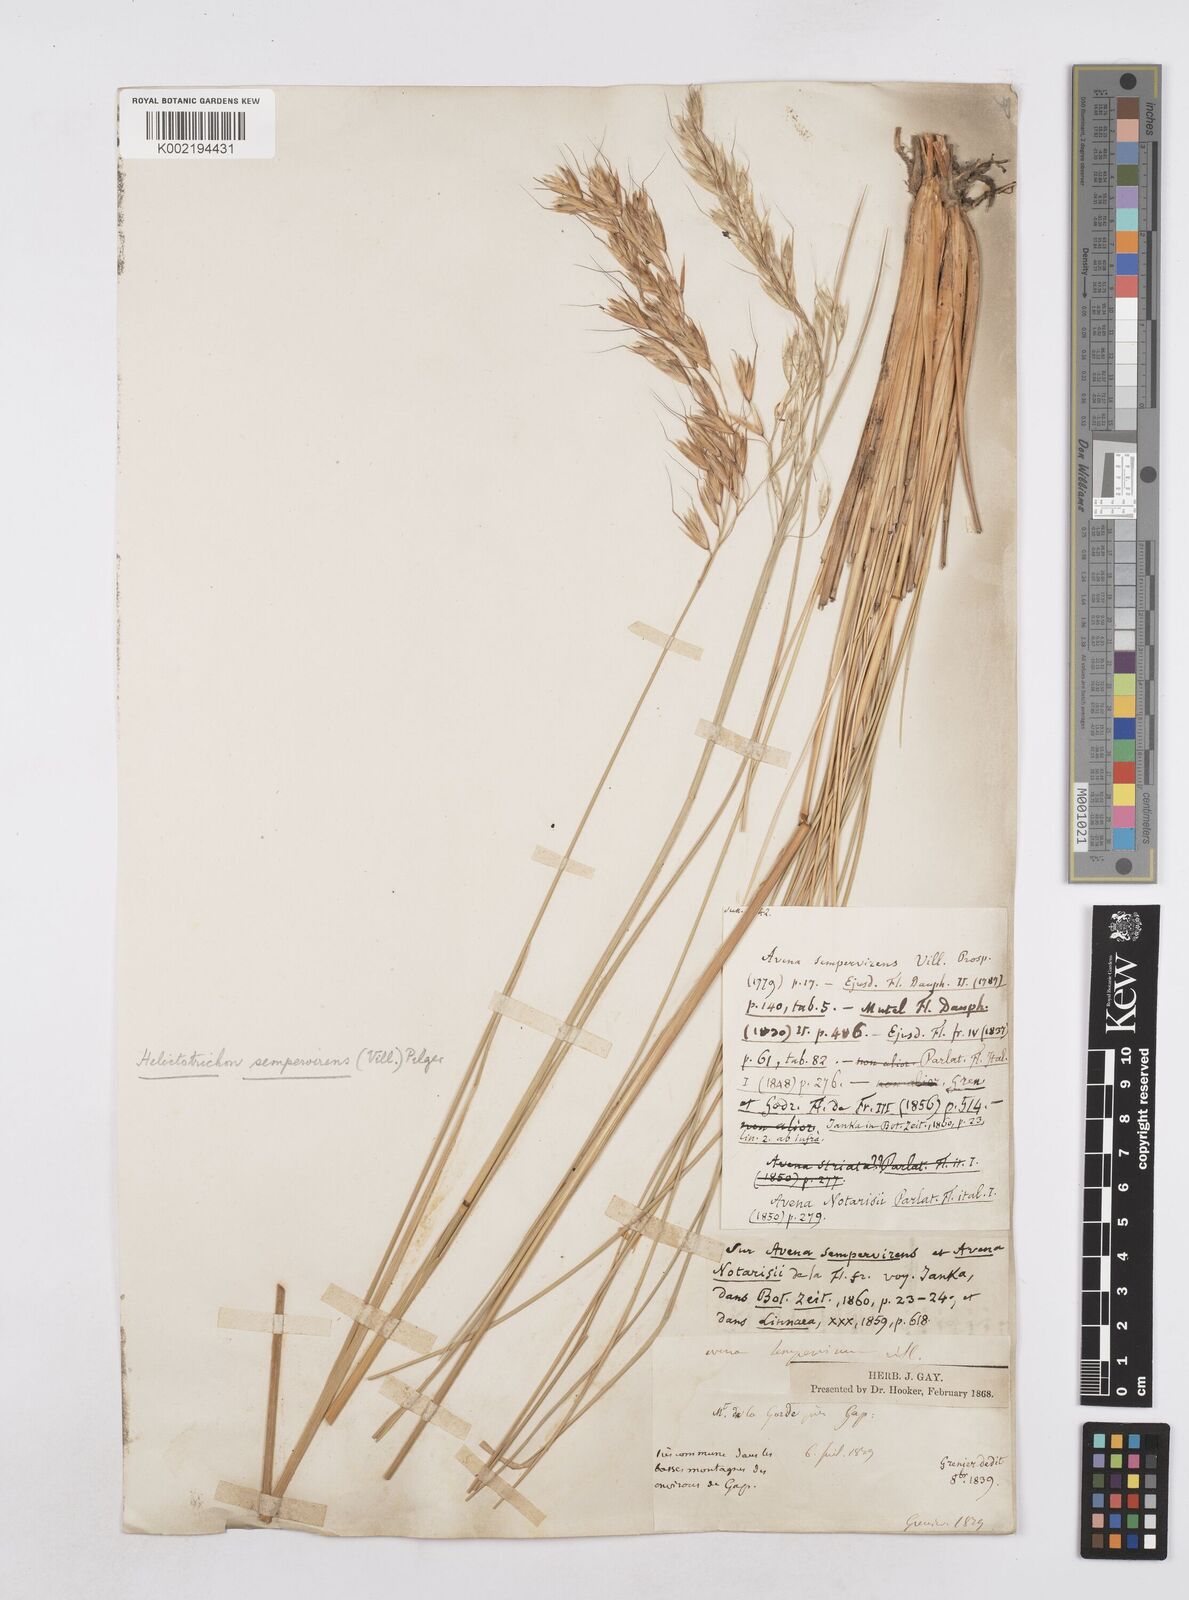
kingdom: Plantae
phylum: Tracheophyta
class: Liliopsida
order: Poales
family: Poaceae
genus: Helictotrichon
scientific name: Helictotrichon sempervirens
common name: Blue oat-grass
